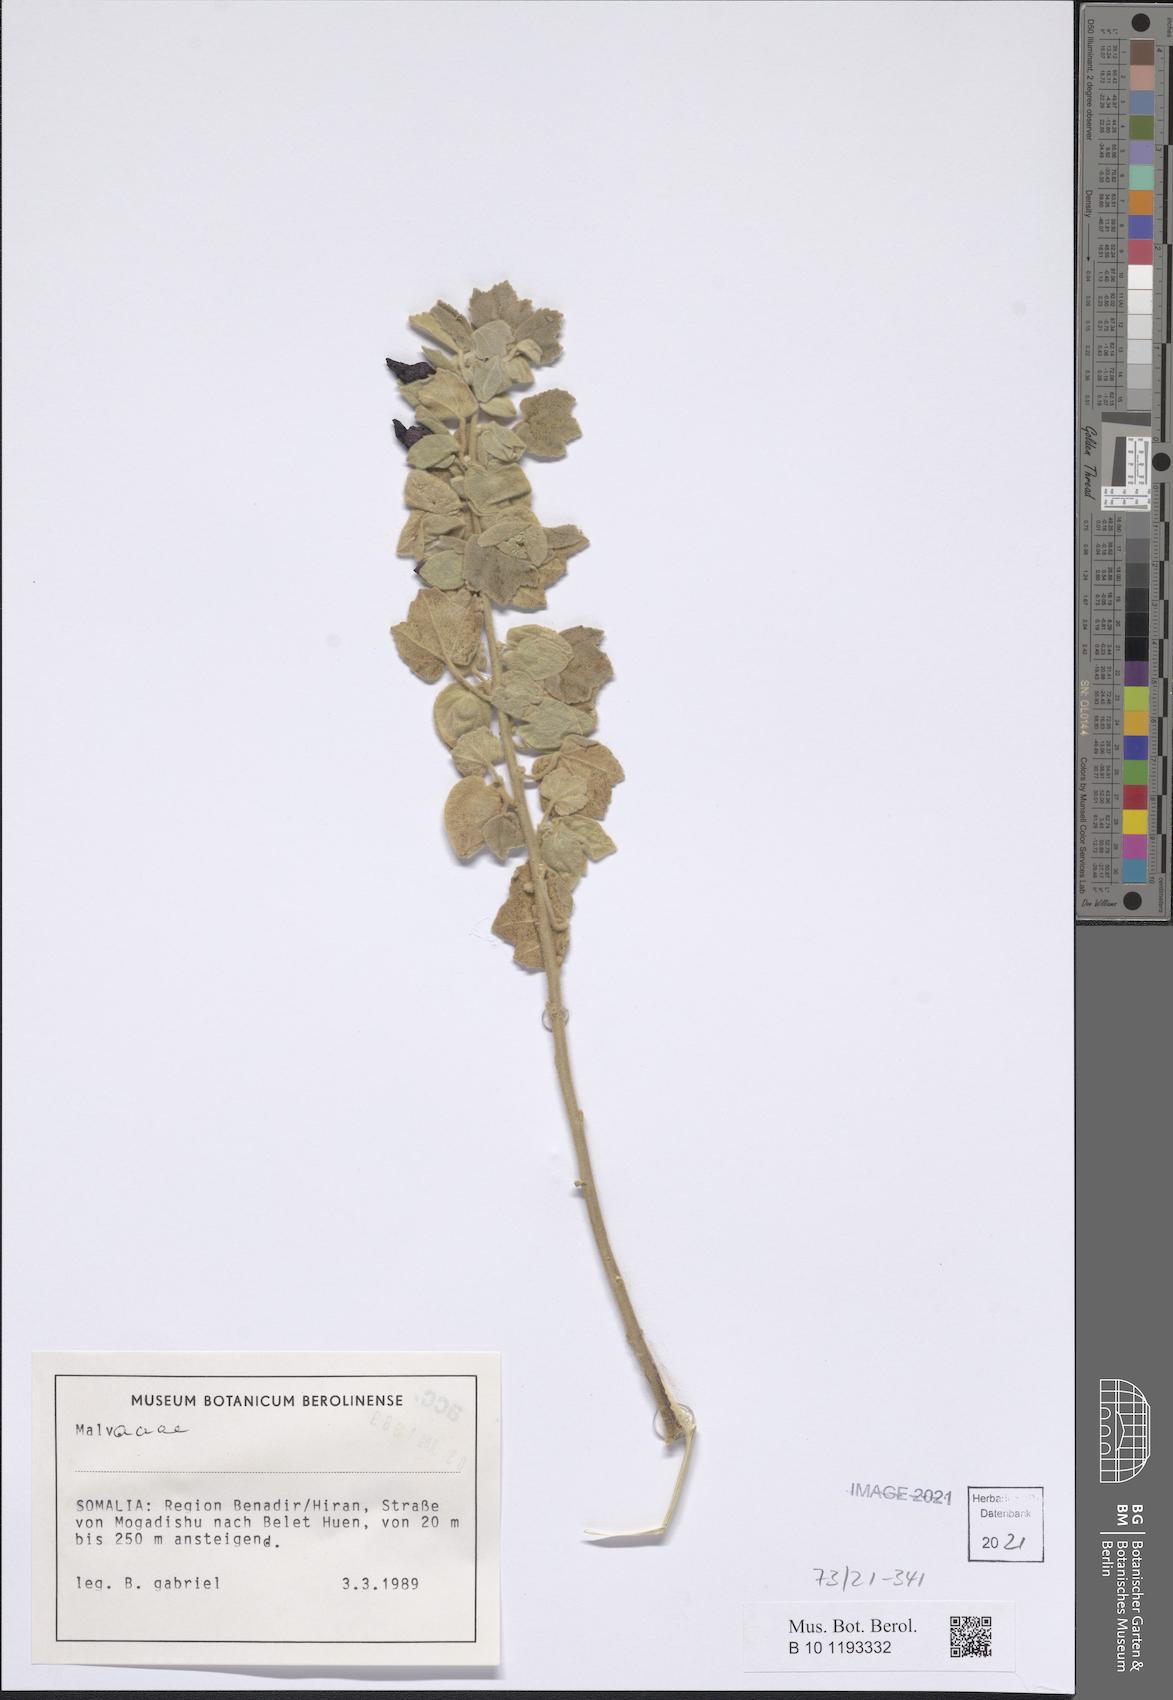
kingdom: Plantae
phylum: Tracheophyta
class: Magnoliopsida
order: Malvales
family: Malvaceae
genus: Senra
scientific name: Senra incana
